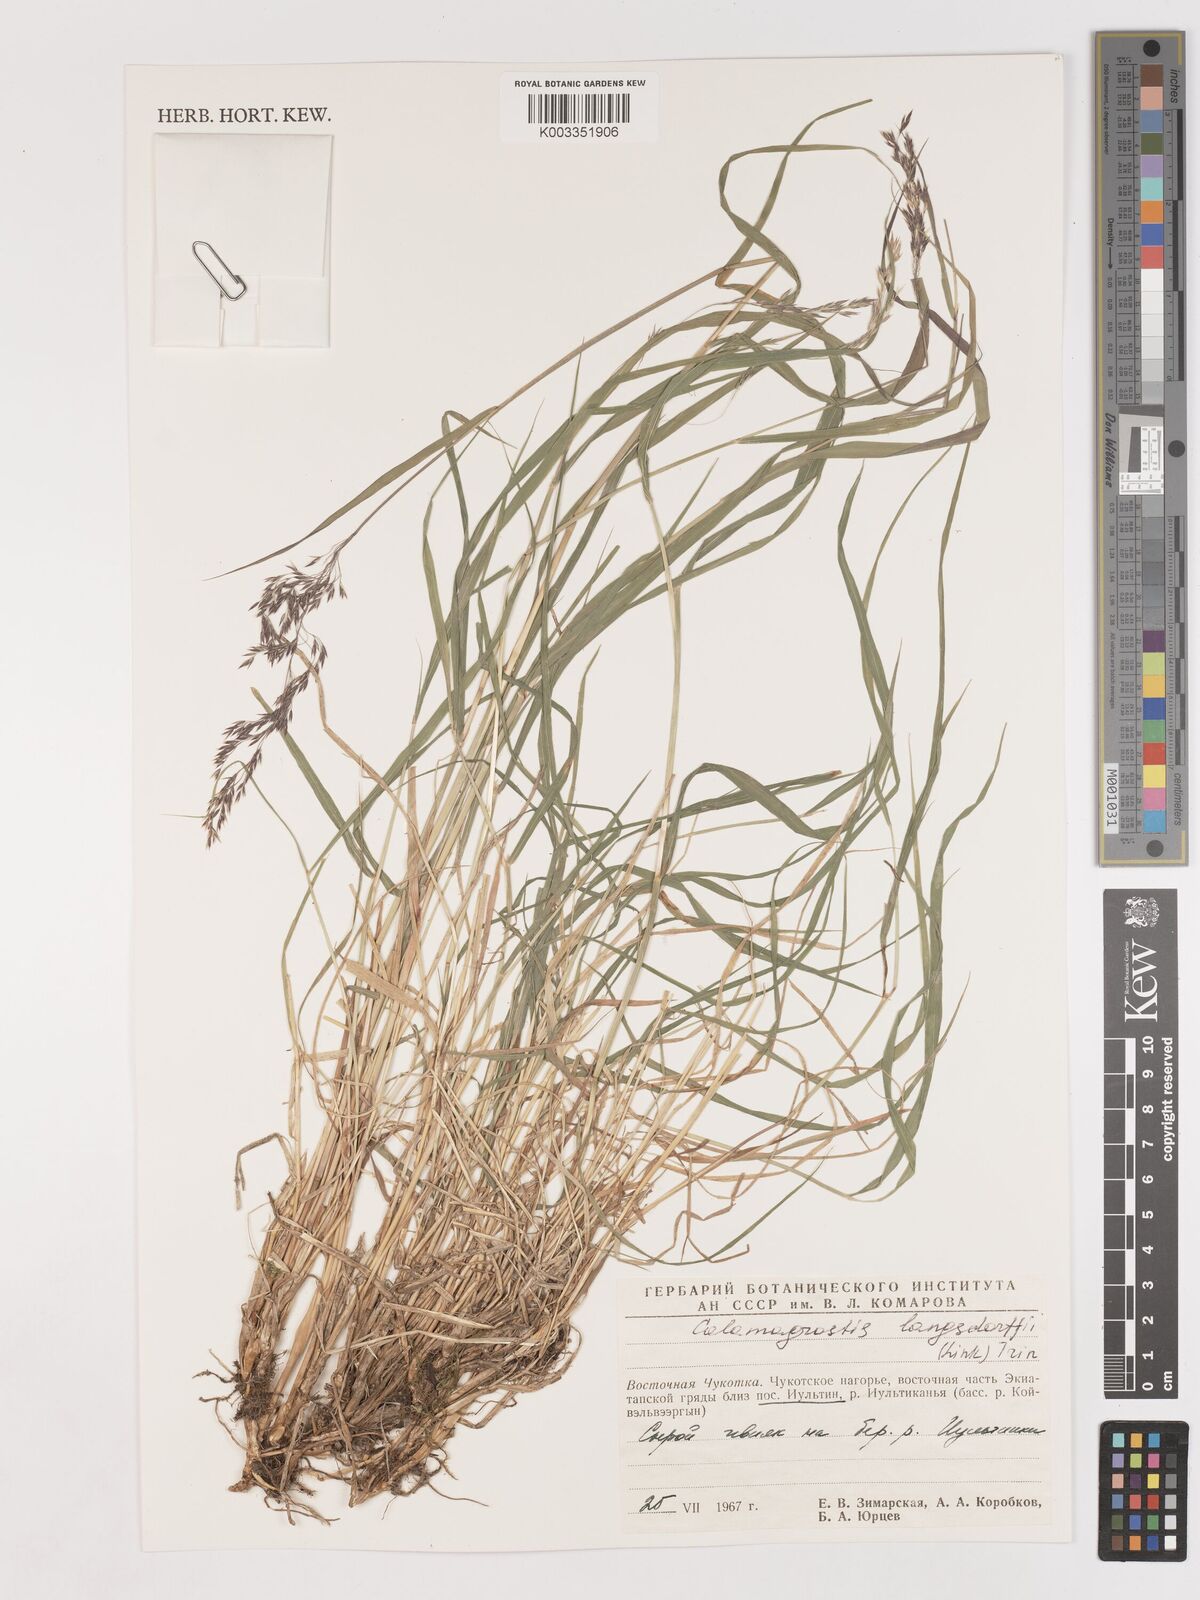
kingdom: Plantae
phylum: Tracheophyta
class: Liliopsida
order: Poales
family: Poaceae
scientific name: Poaceae
